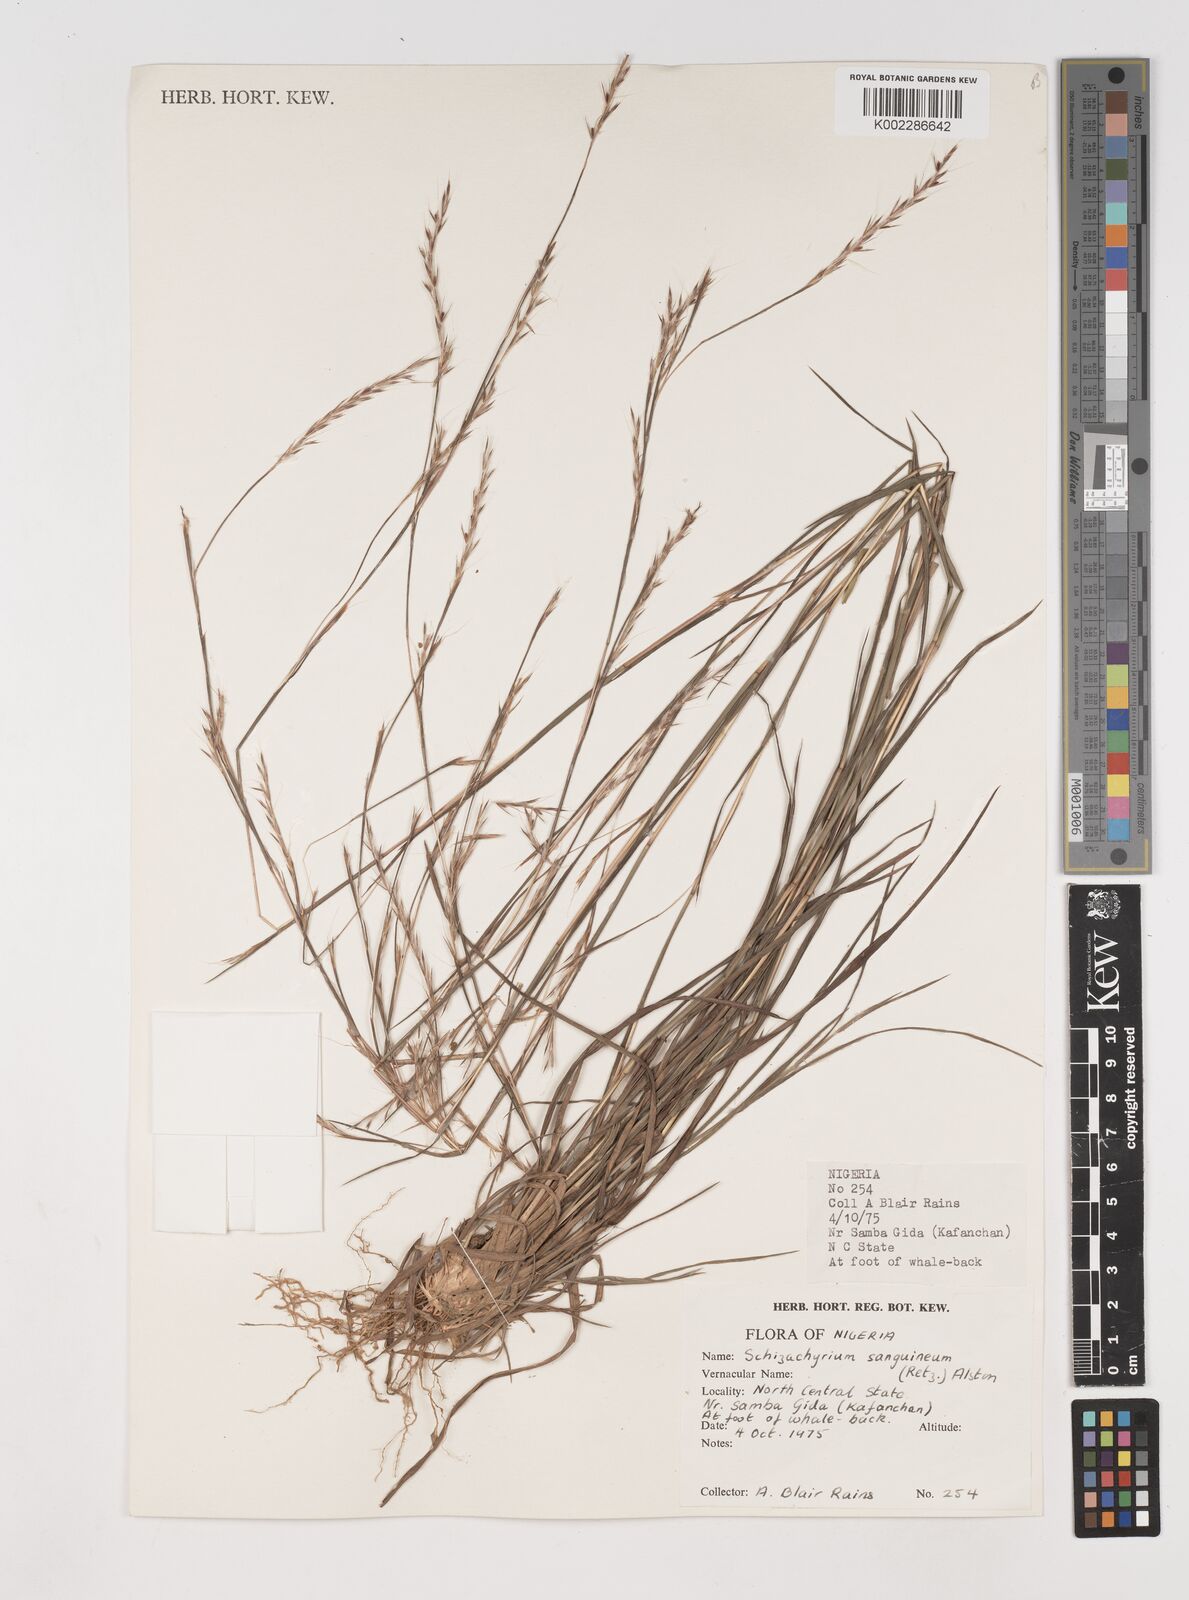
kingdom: Plantae
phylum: Tracheophyta
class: Liliopsida
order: Poales
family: Poaceae
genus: Schizachyrium
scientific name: Schizachyrium sanguineum
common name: Crimson bluestem
